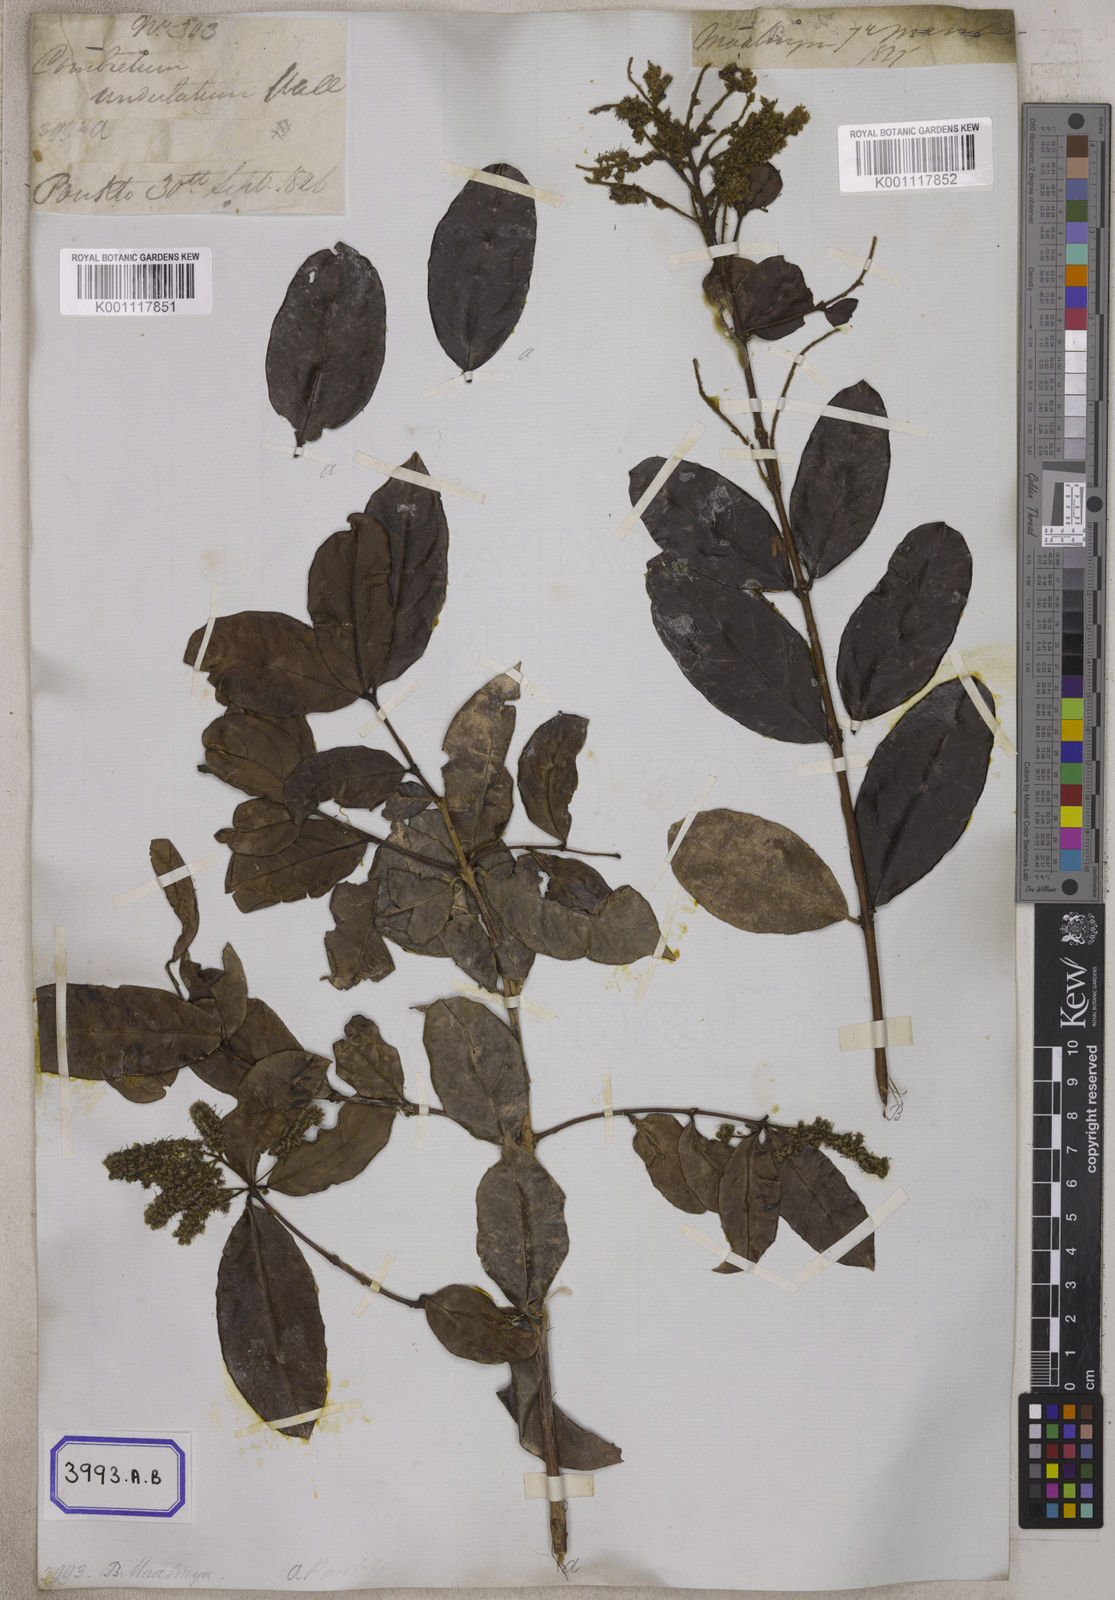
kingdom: Plantae
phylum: Tracheophyta
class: Magnoliopsida
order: Myrtales
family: Combretaceae
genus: Combretum
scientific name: Combretum trifoliatum
